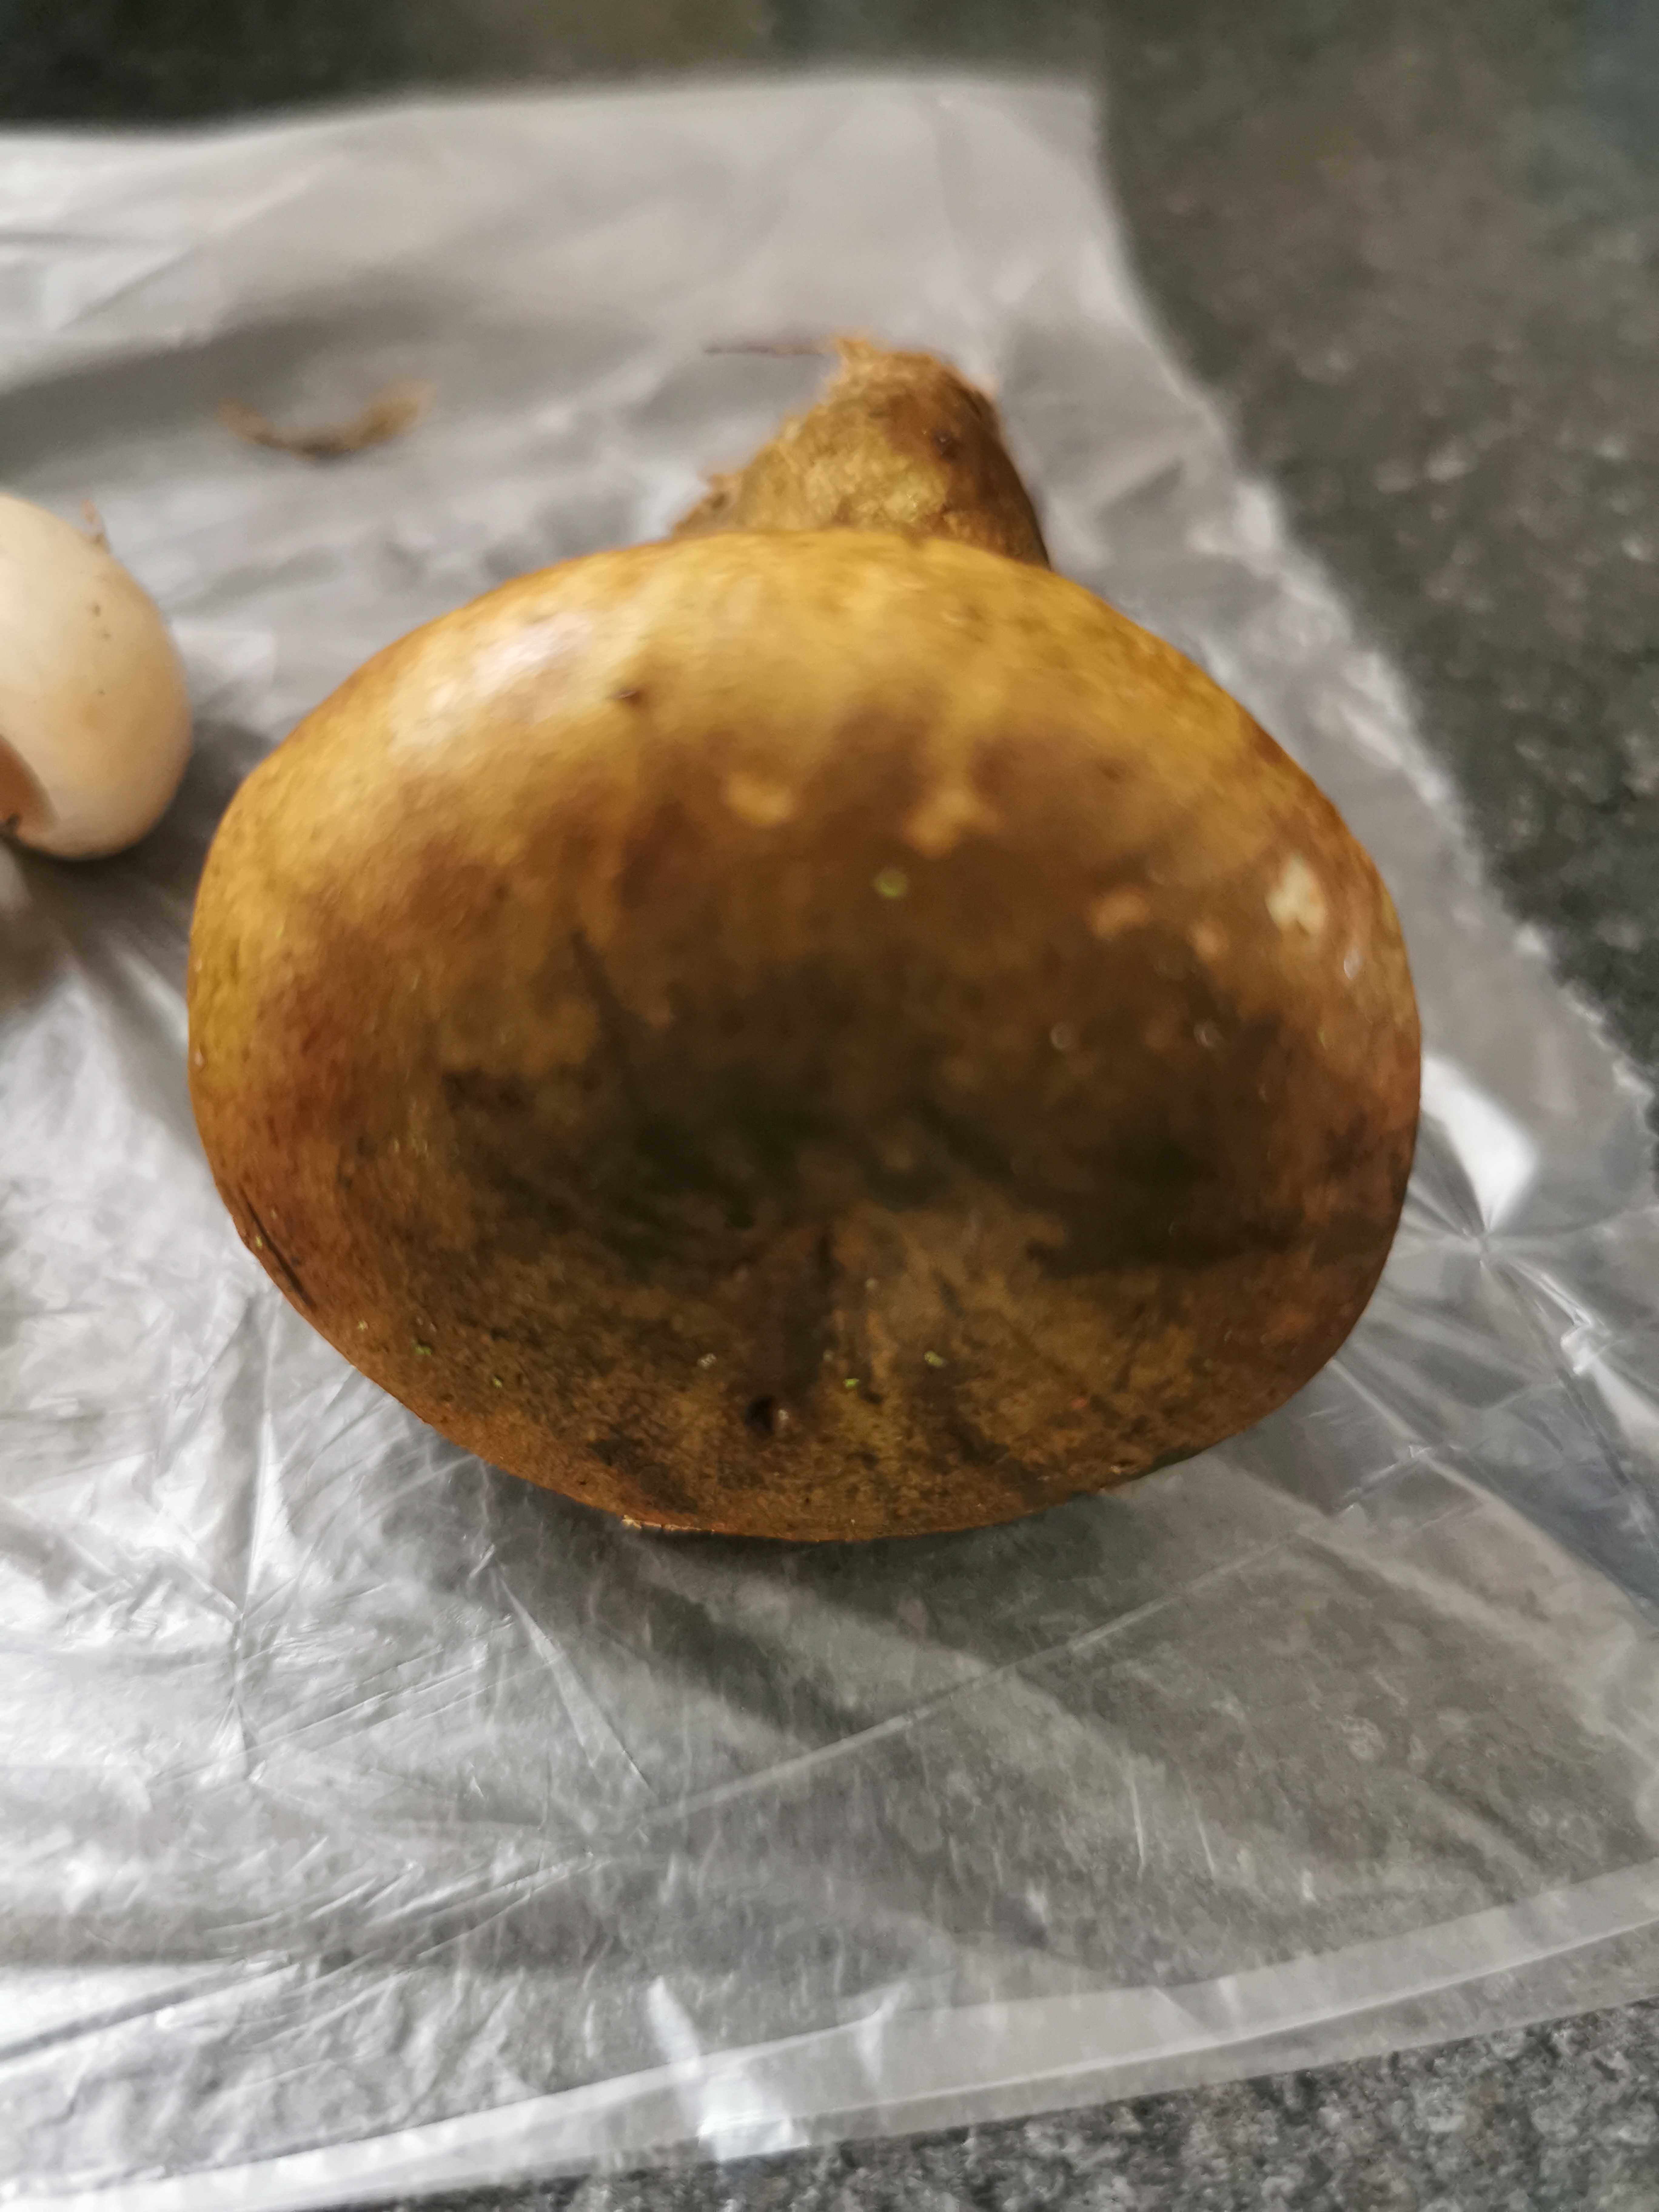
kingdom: Fungi
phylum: Basidiomycota
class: Agaricomycetes
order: Russulales
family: Russulaceae
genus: Lactarius
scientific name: Lactarius necator
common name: manddraber-mælkehat
